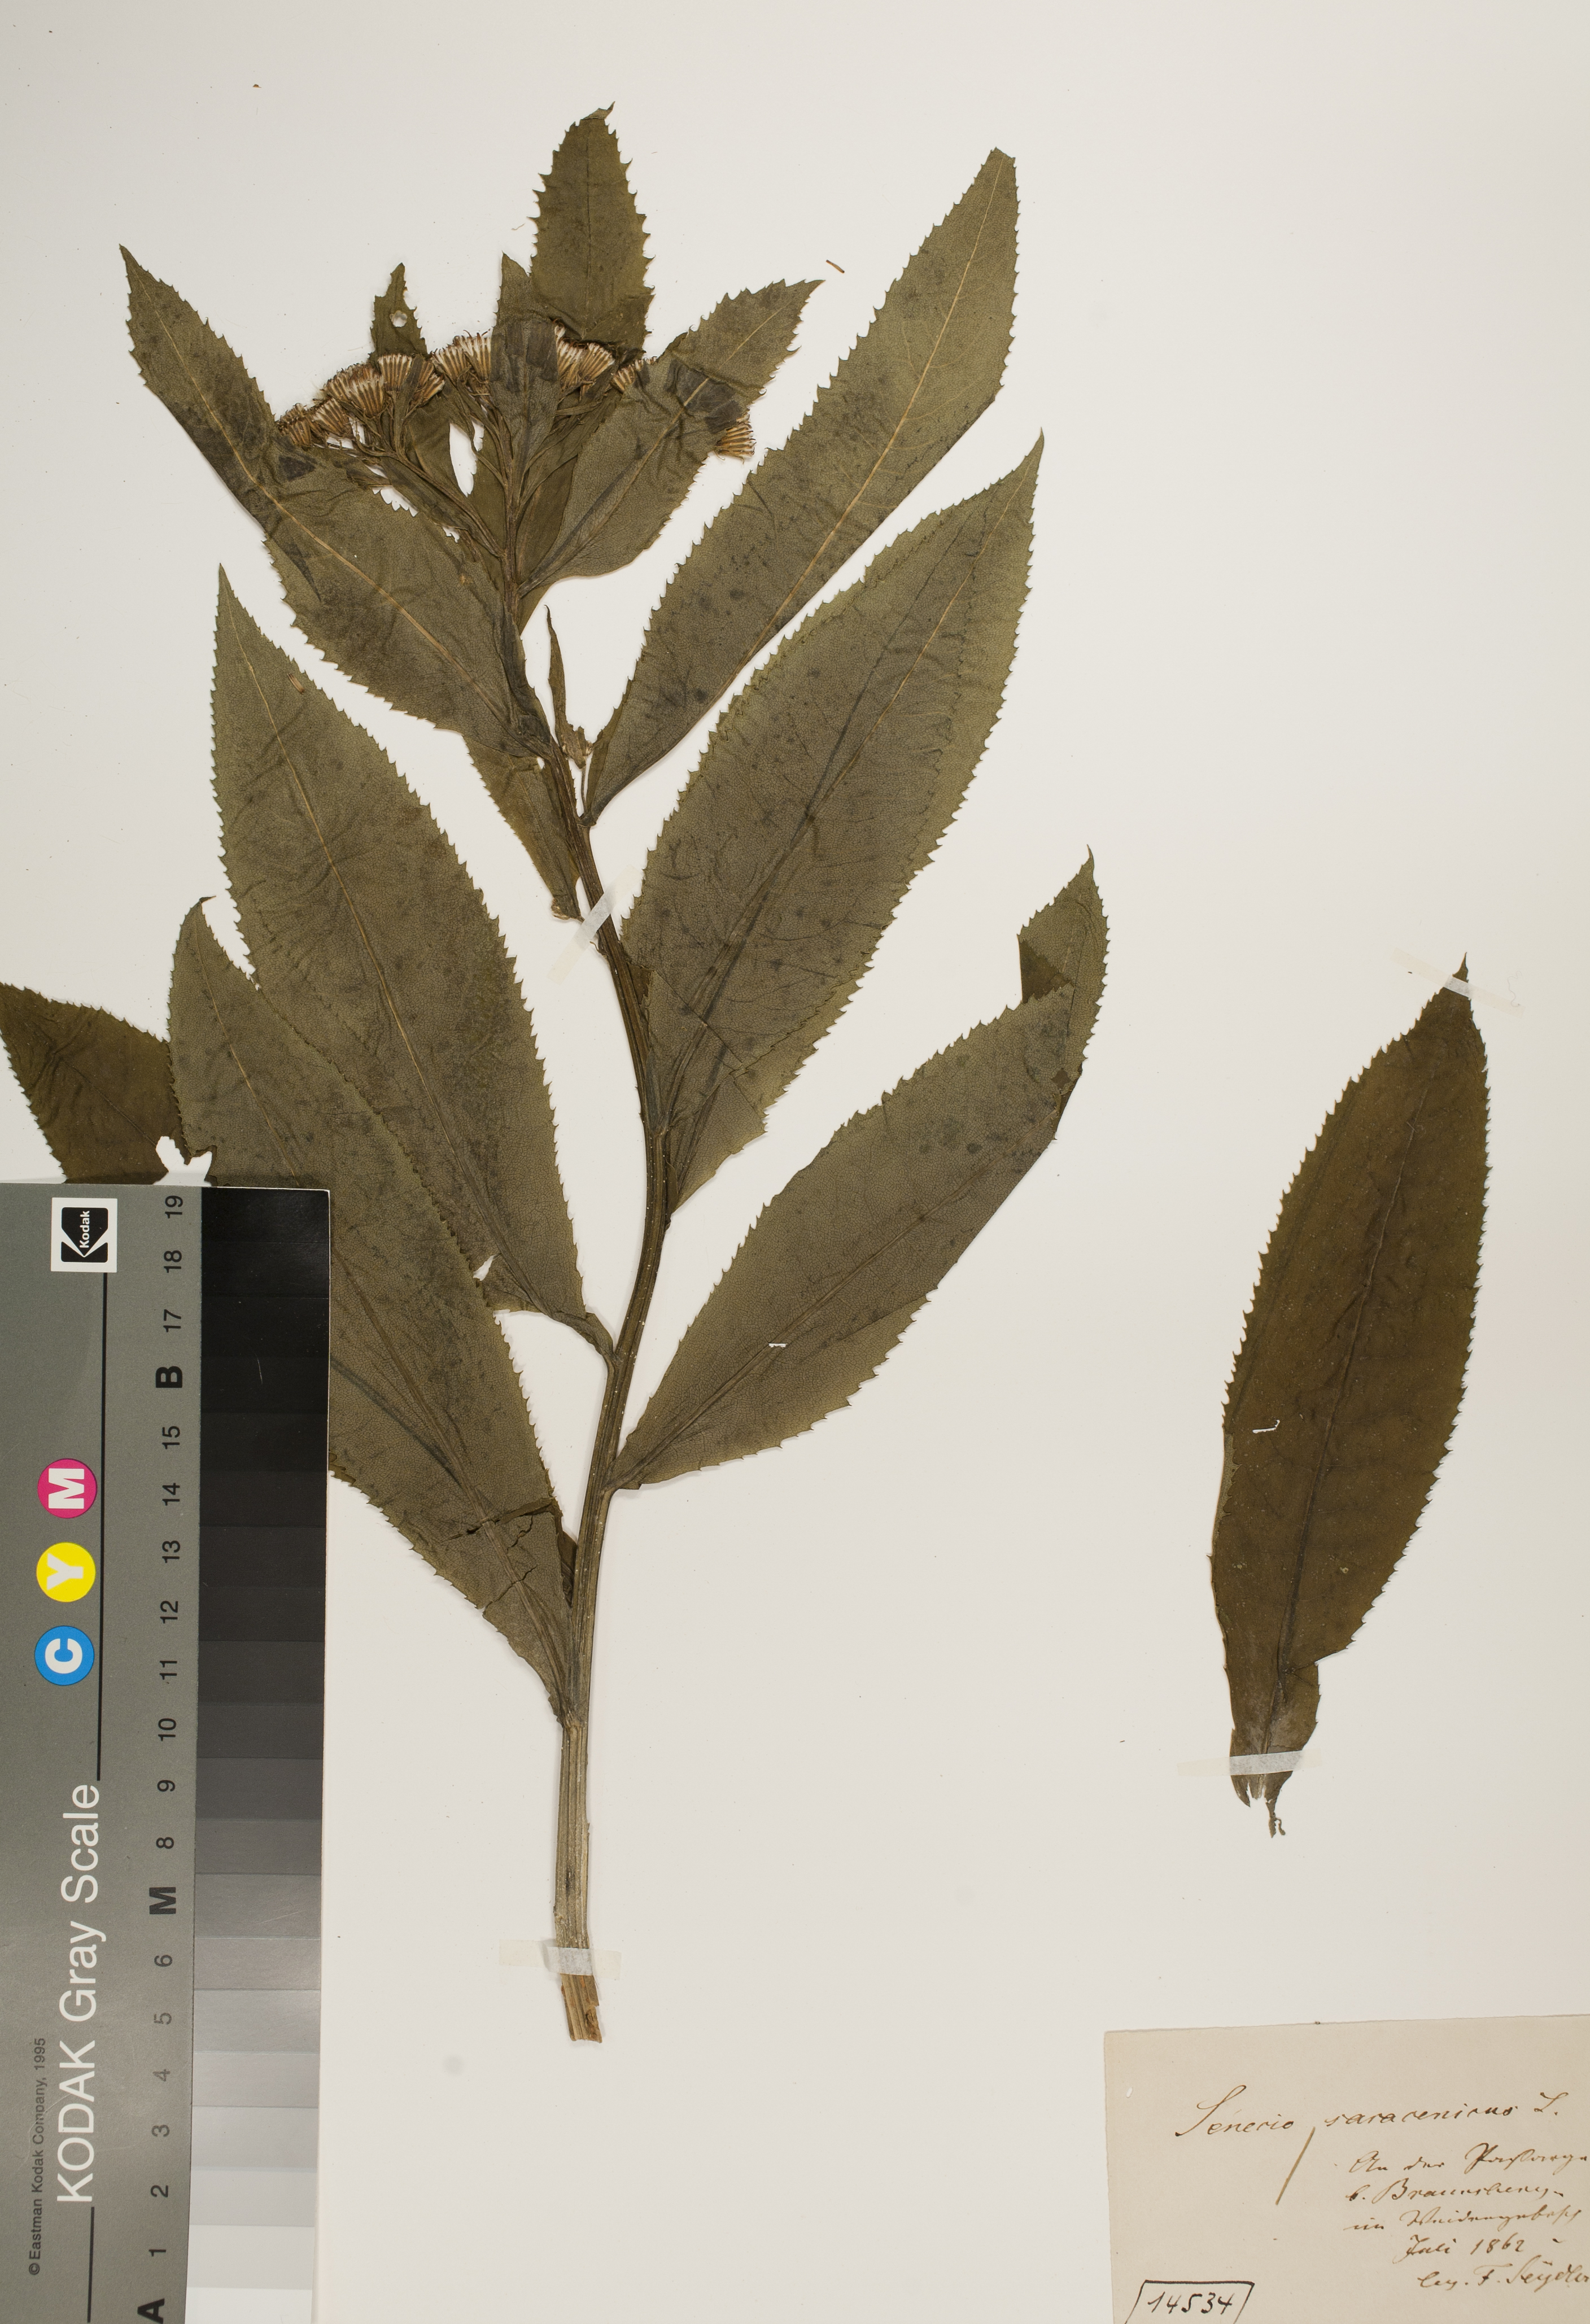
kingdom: Plantae
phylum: Tracheophyta
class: Magnoliopsida
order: Asterales
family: Asteraceae
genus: Senecio
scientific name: Senecio sarracenicus
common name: Broad-leaved ragwort
